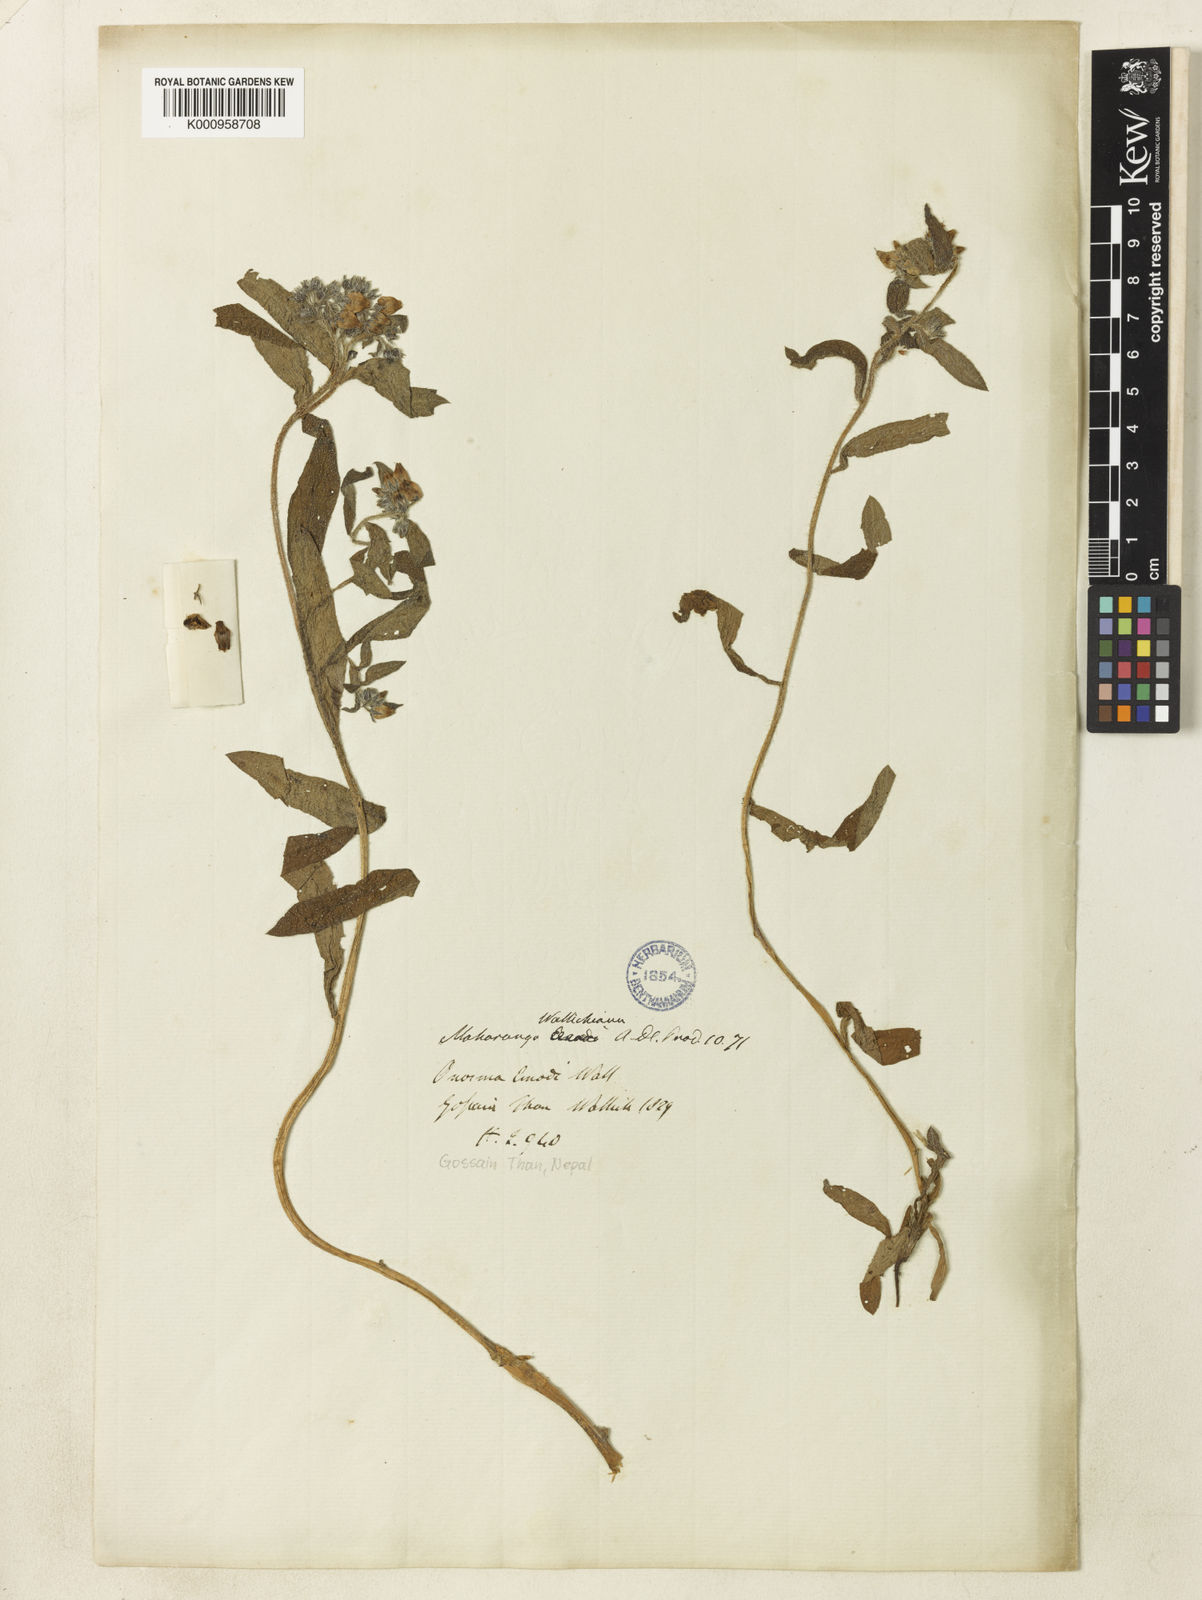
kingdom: Plantae
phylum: Tracheophyta
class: Magnoliopsida
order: Boraginales
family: Boraginaceae
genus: Maharanga
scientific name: Maharanga wallichiana
